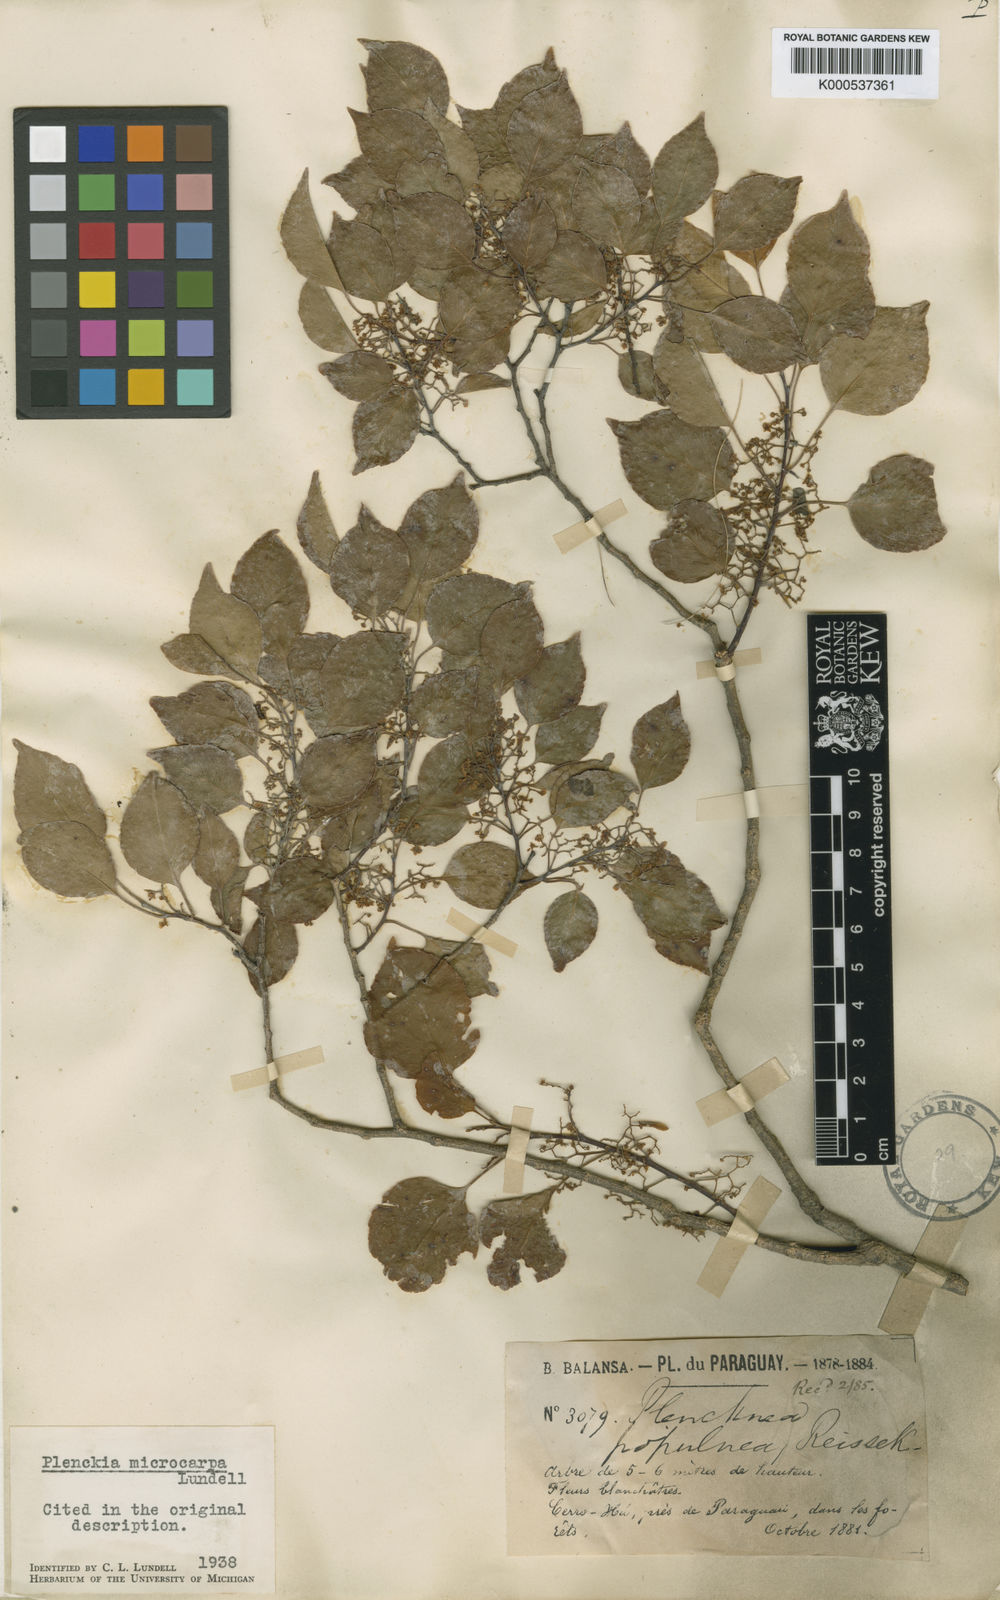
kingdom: Plantae
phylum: Tracheophyta
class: Magnoliopsida
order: Celastrales
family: Celastraceae
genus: Plenckia
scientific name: Plenckia microcarpa
